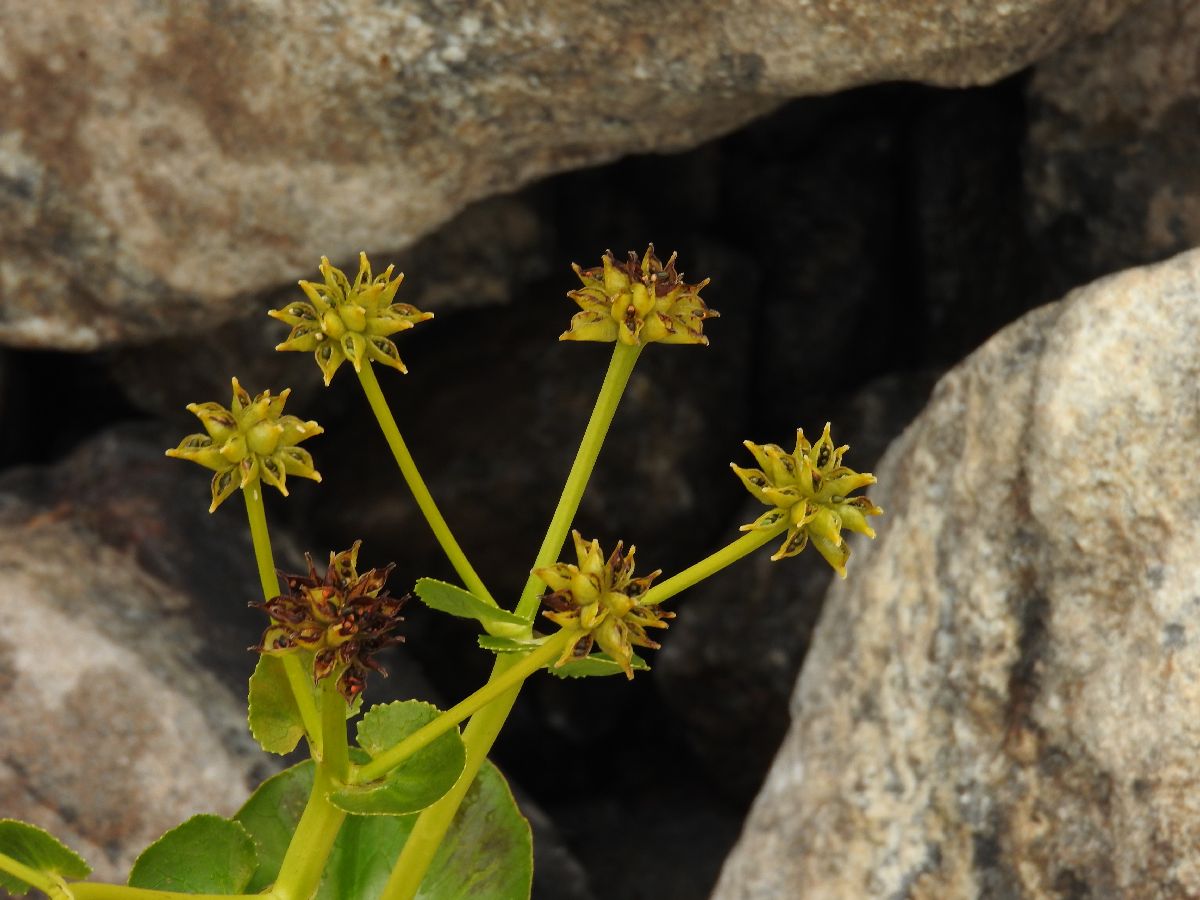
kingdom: Plantae
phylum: Tracheophyta
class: Magnoliopsida
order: Ranunculales
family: Ranunculaceae
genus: Caltha
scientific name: Caltha palustris
